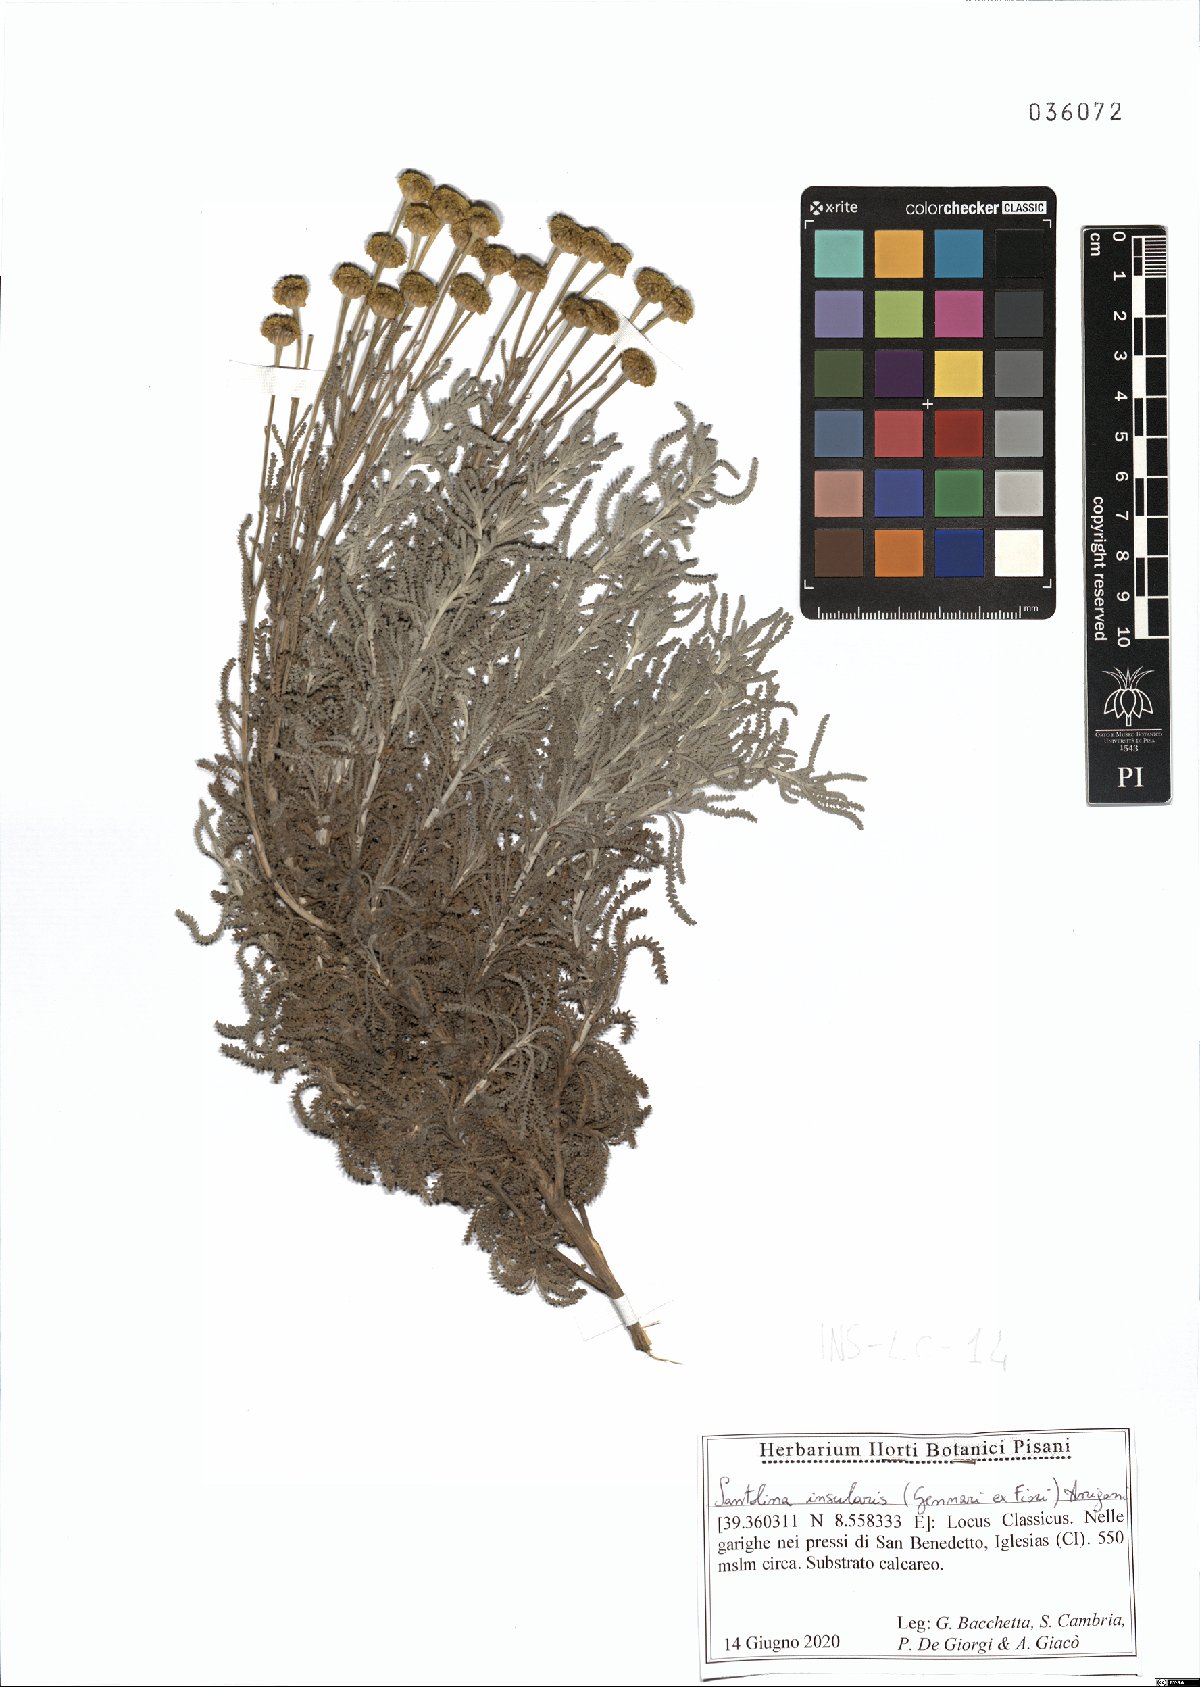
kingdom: Plantae
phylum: Tracheophyta
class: Magnoliopsida
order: Asterales
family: Asteraceae
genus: Santolina
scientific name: Santolina insularis
